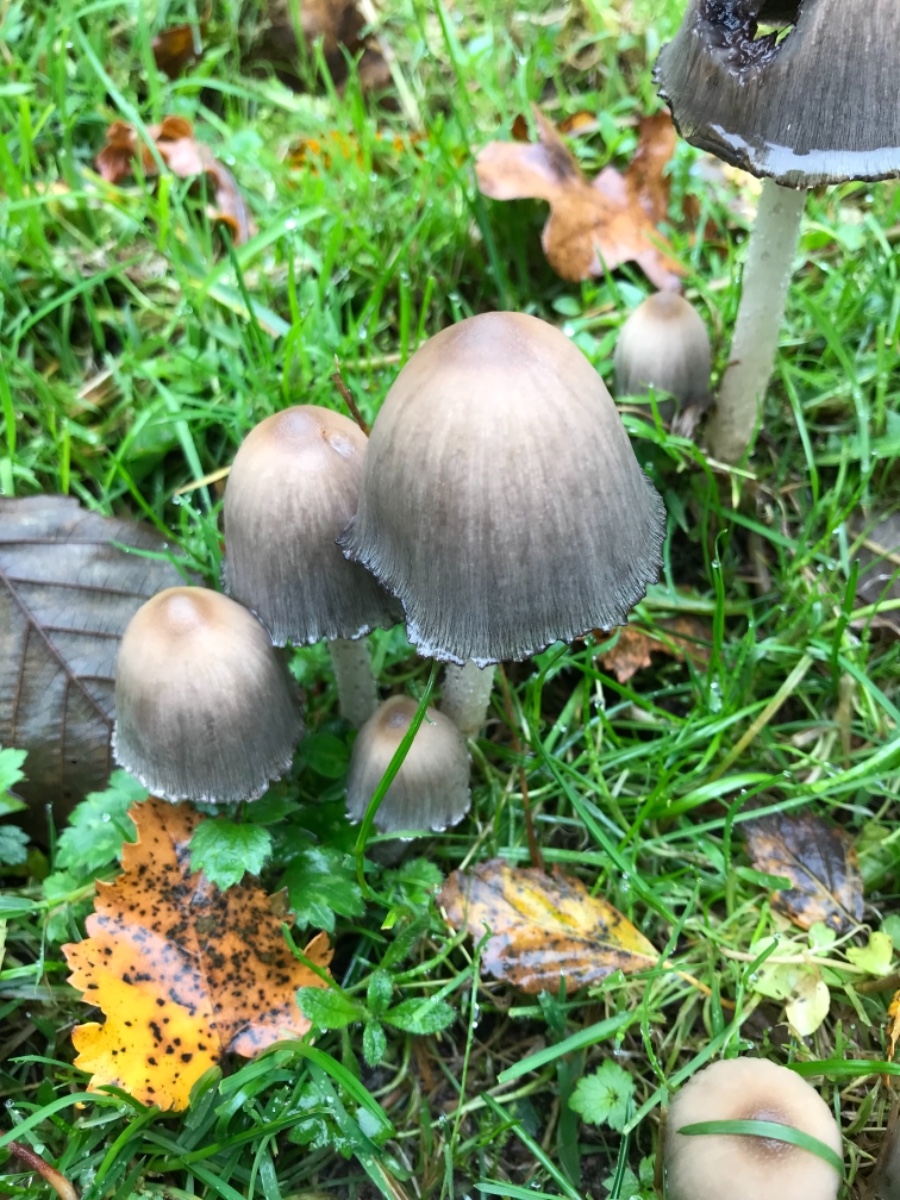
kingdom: Fungi
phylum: Basidiomycota
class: Agaricomycetes
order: Agaricales
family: Psathyrellaceae
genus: Coprinopsis
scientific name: Coprinopsis
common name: blækhat
